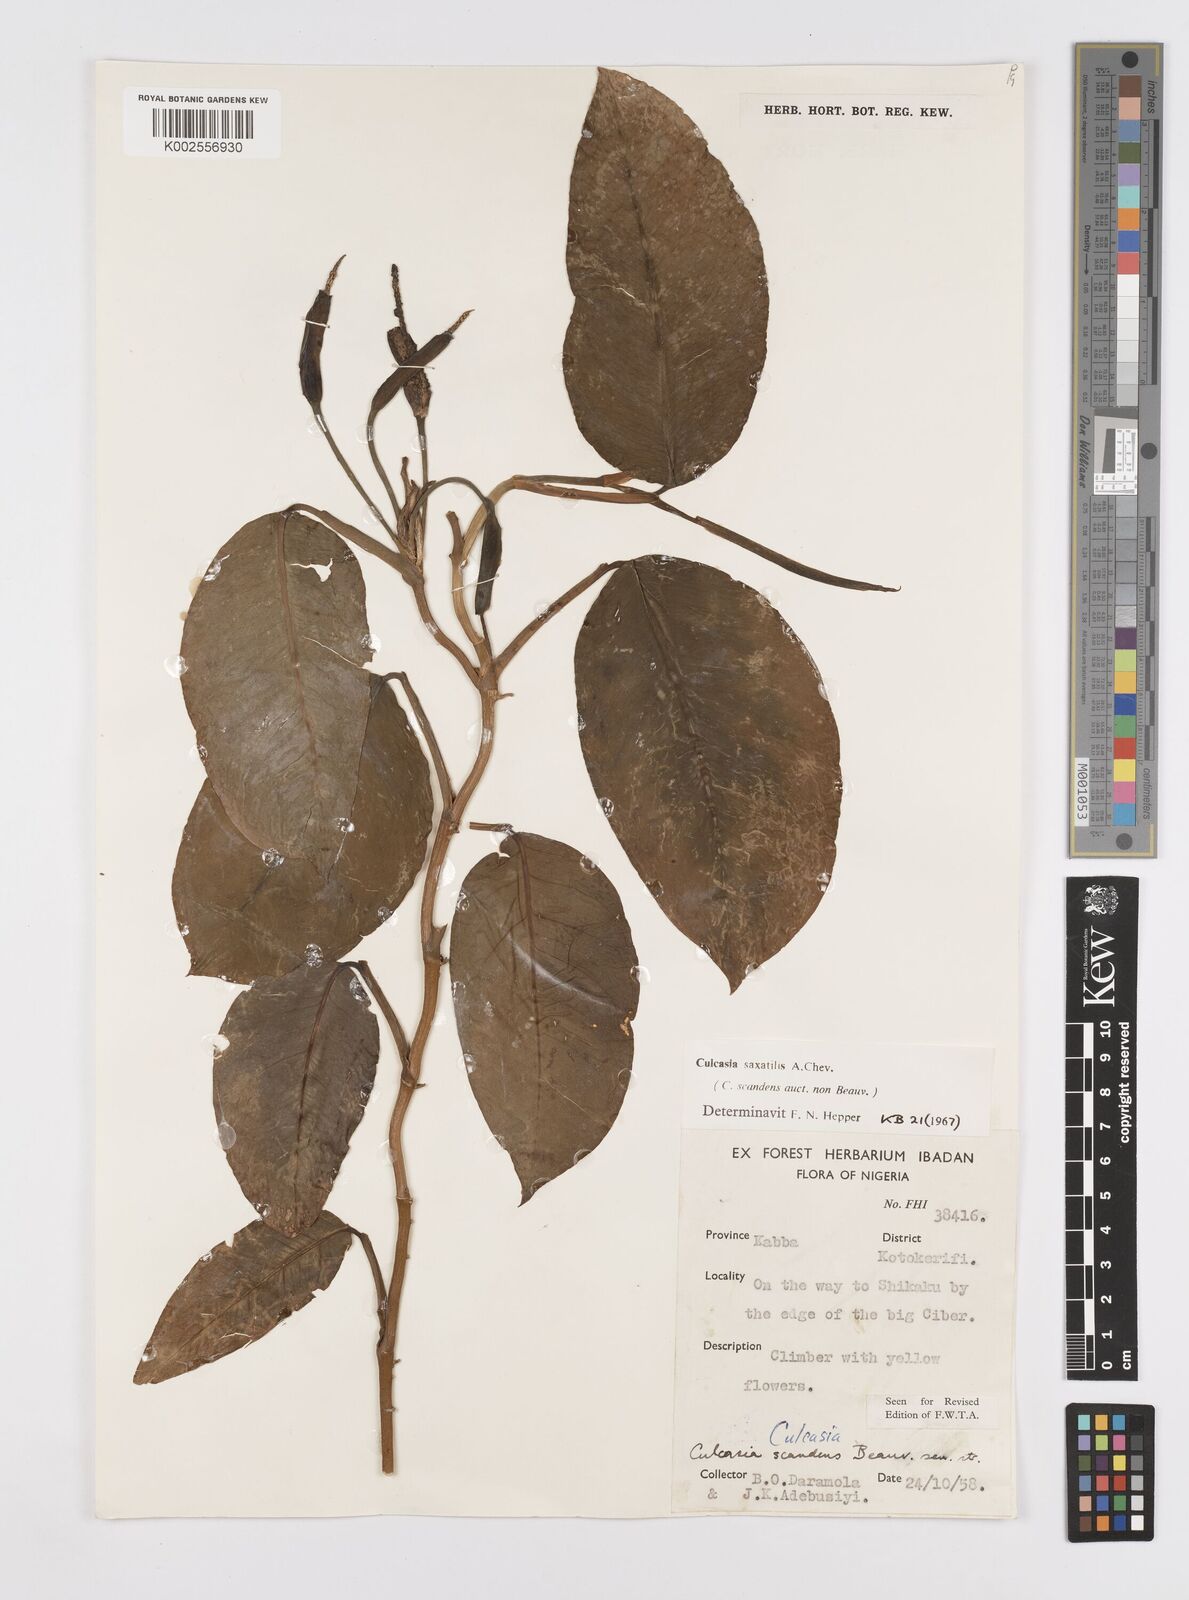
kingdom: Plantae
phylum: Tracheophyta
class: Liliopsida
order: Alismatales
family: Araceae
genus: Culcasia
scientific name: Culcasia scandens
